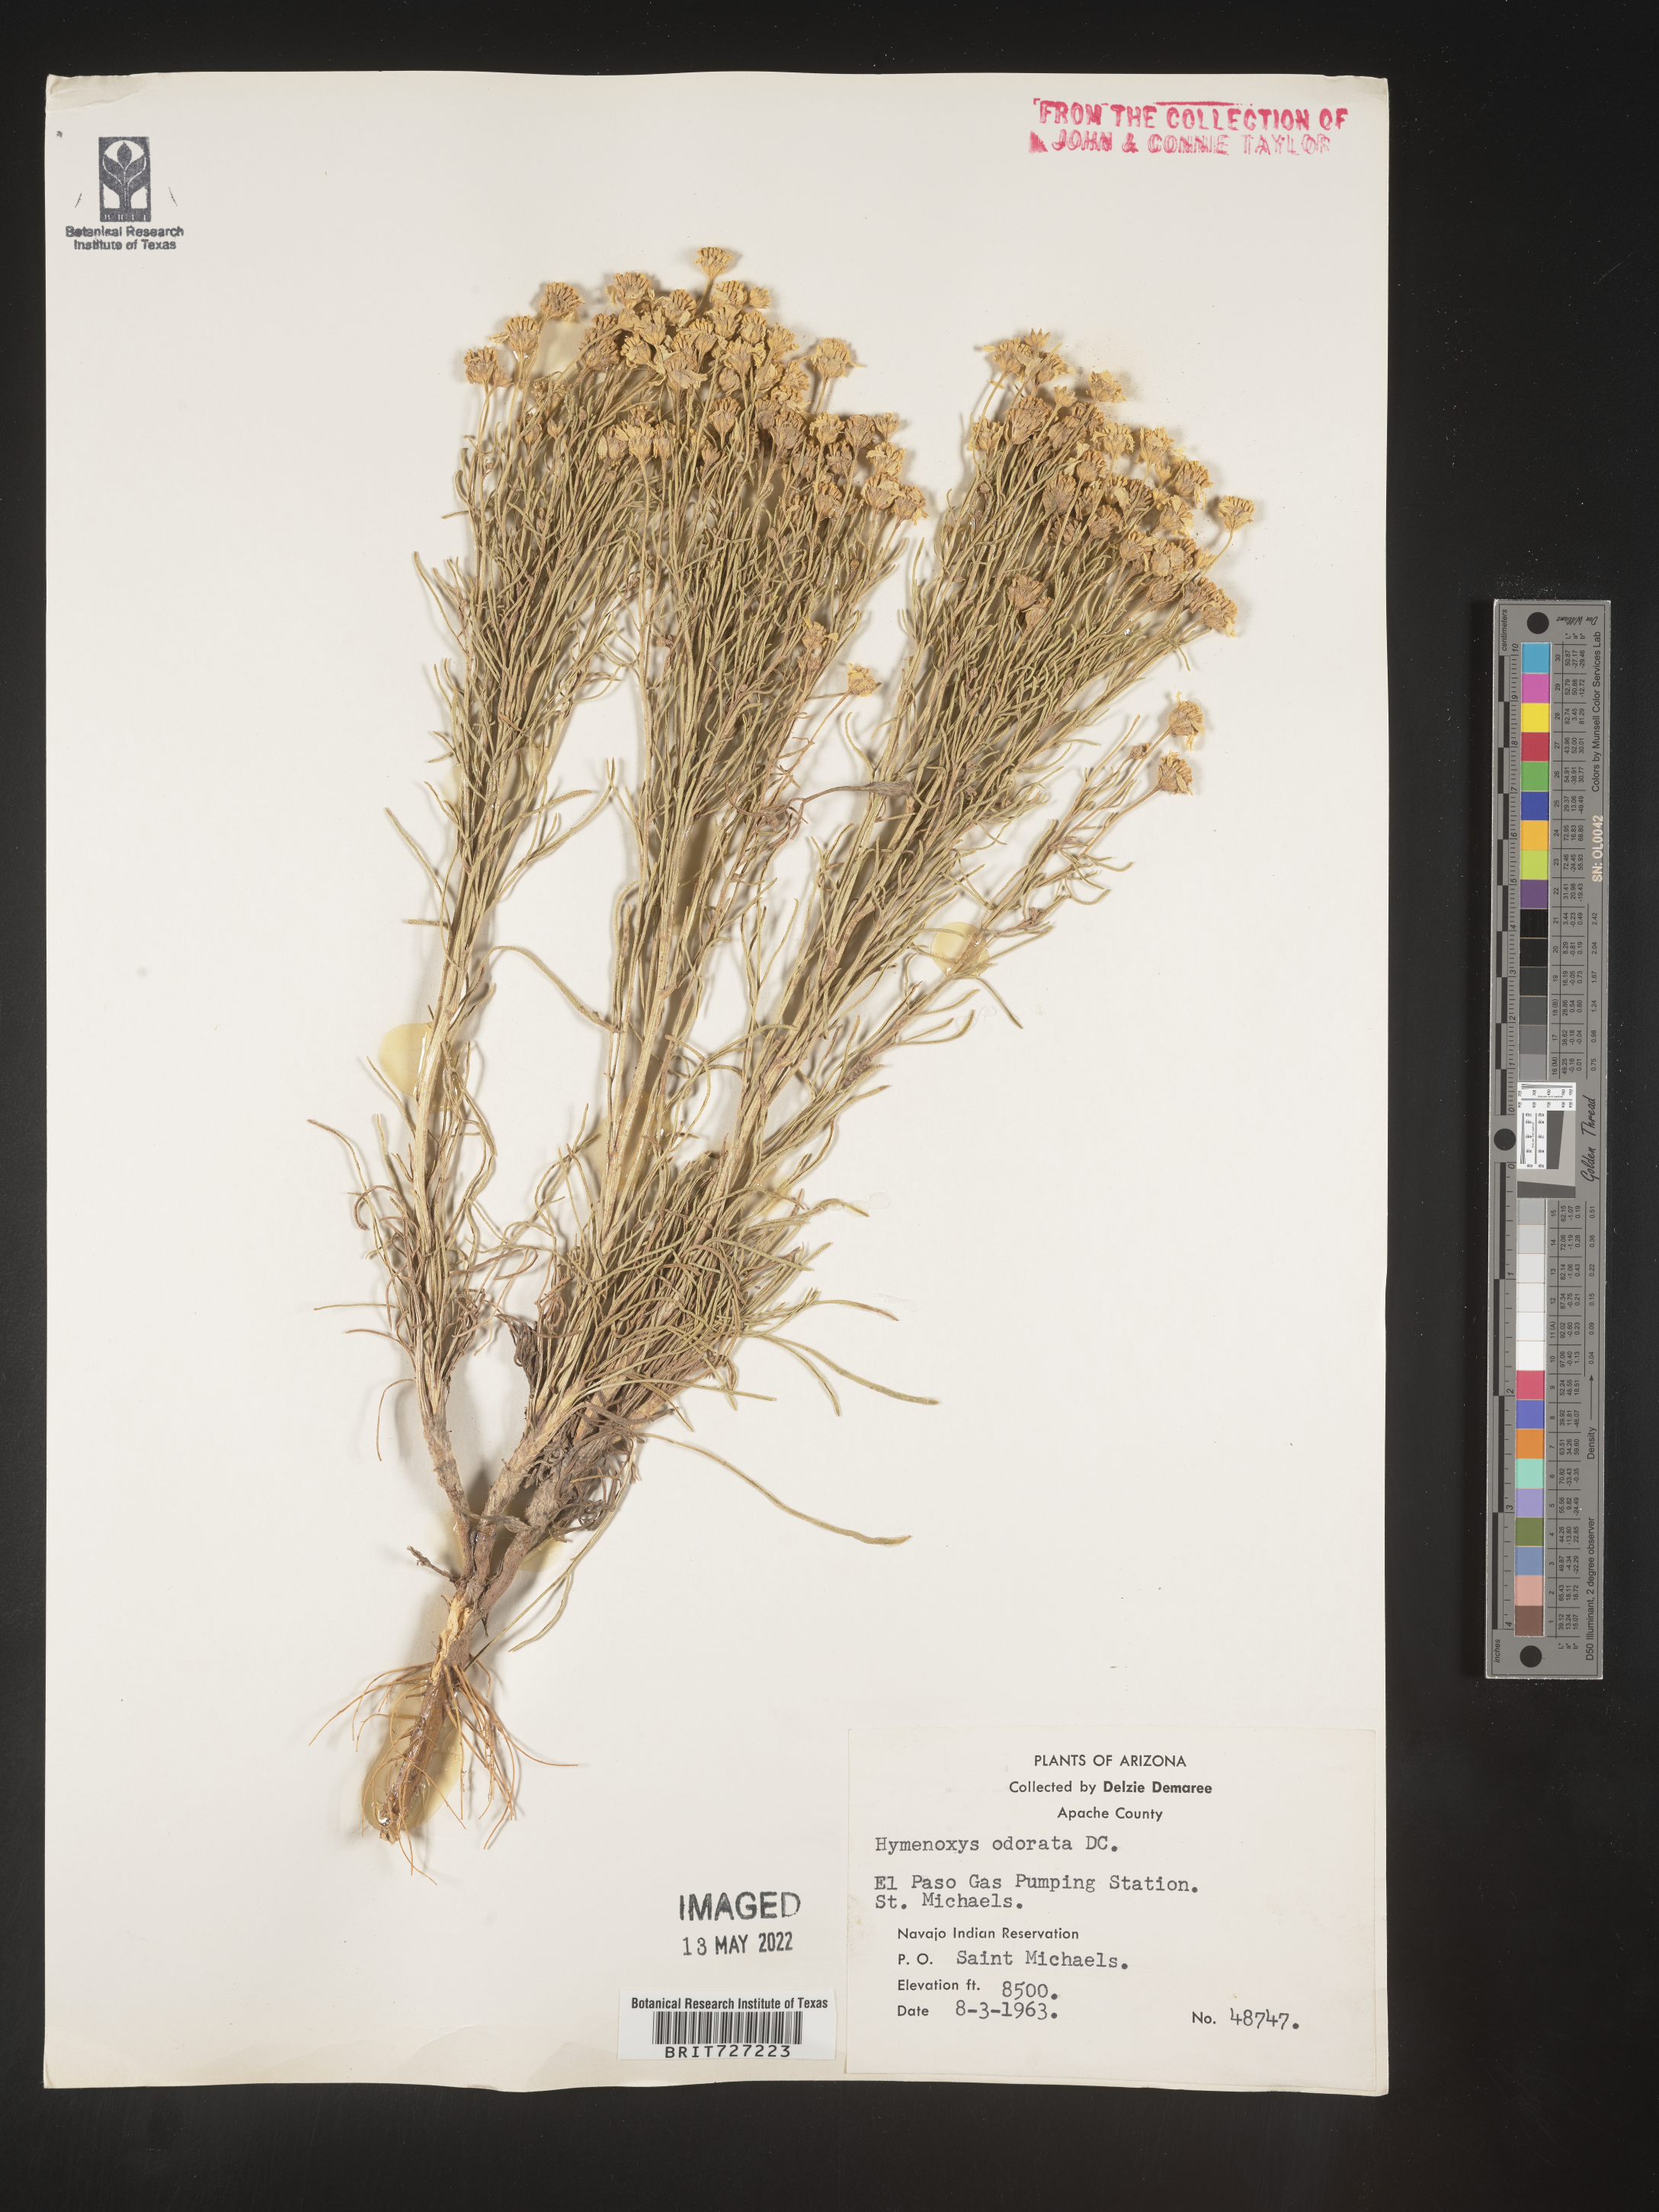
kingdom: Plantae
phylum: Tracheophyta
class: Magnoliopsida
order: Asterales
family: Asteraceae
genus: Hymenoxys
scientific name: Hymenoxys richardsonii
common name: Pingue rubberweed
